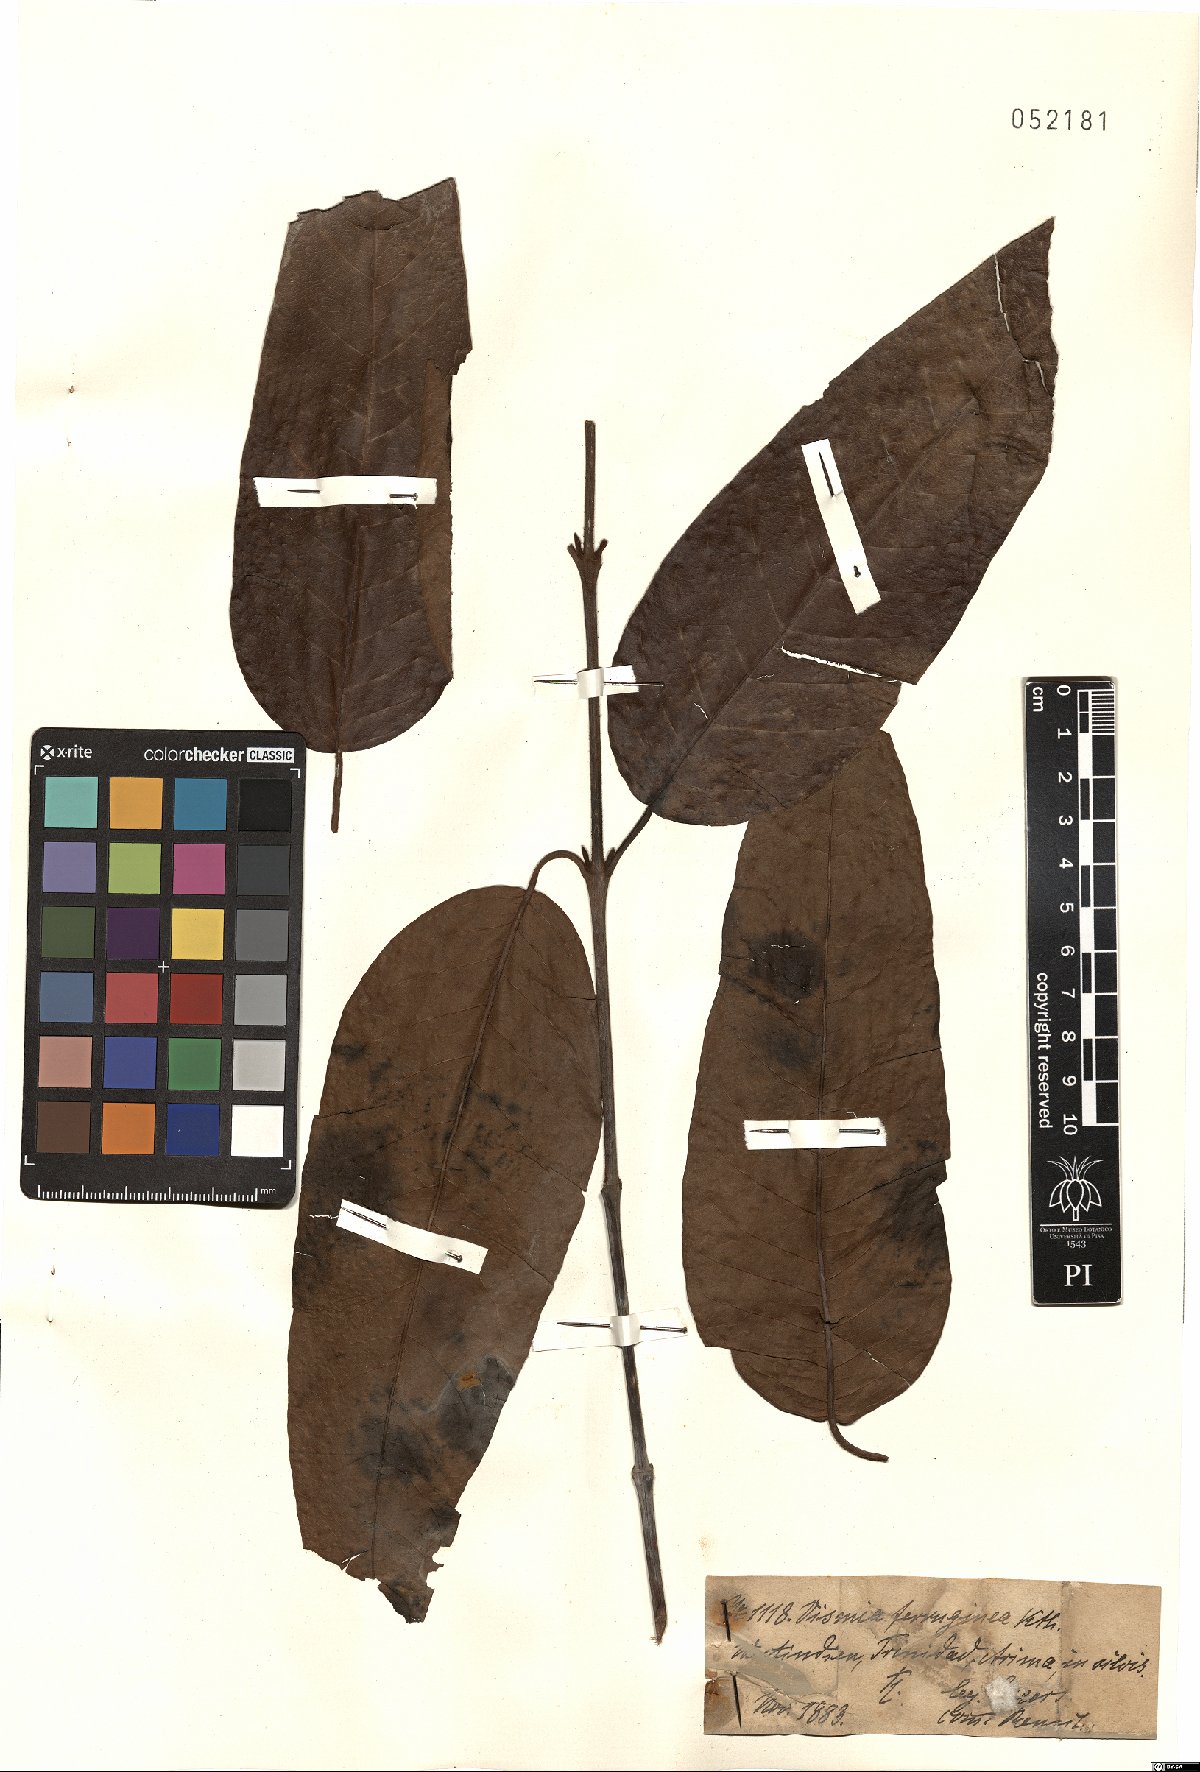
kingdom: Plantae
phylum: Tracheophyta
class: Magnoliopsida
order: Malpighiales
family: Hypericaceae
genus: Vismia
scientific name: Vismia ferruginea
